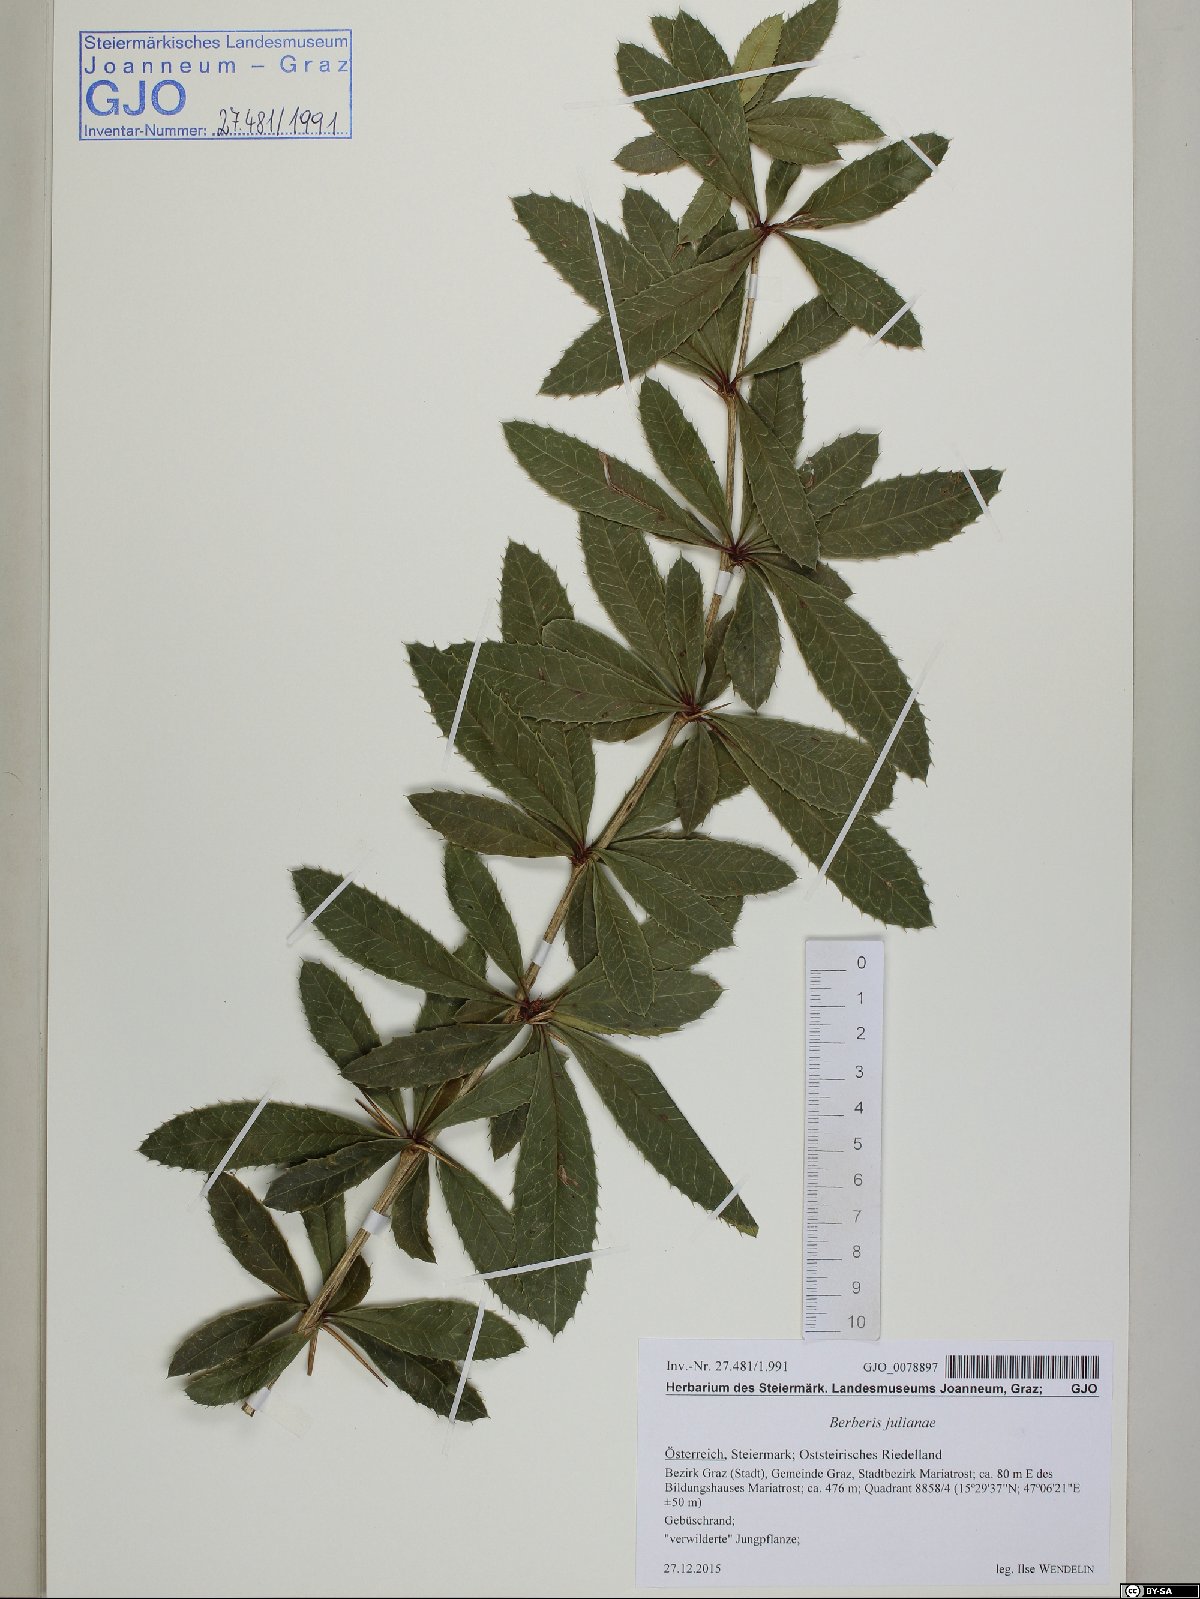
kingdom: Plantae
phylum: Tracheophyta
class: Magnoliopsida
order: Ranunculales
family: Berberidaceae
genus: Berberis
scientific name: Berberis julianae
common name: Wintergreen barberry
